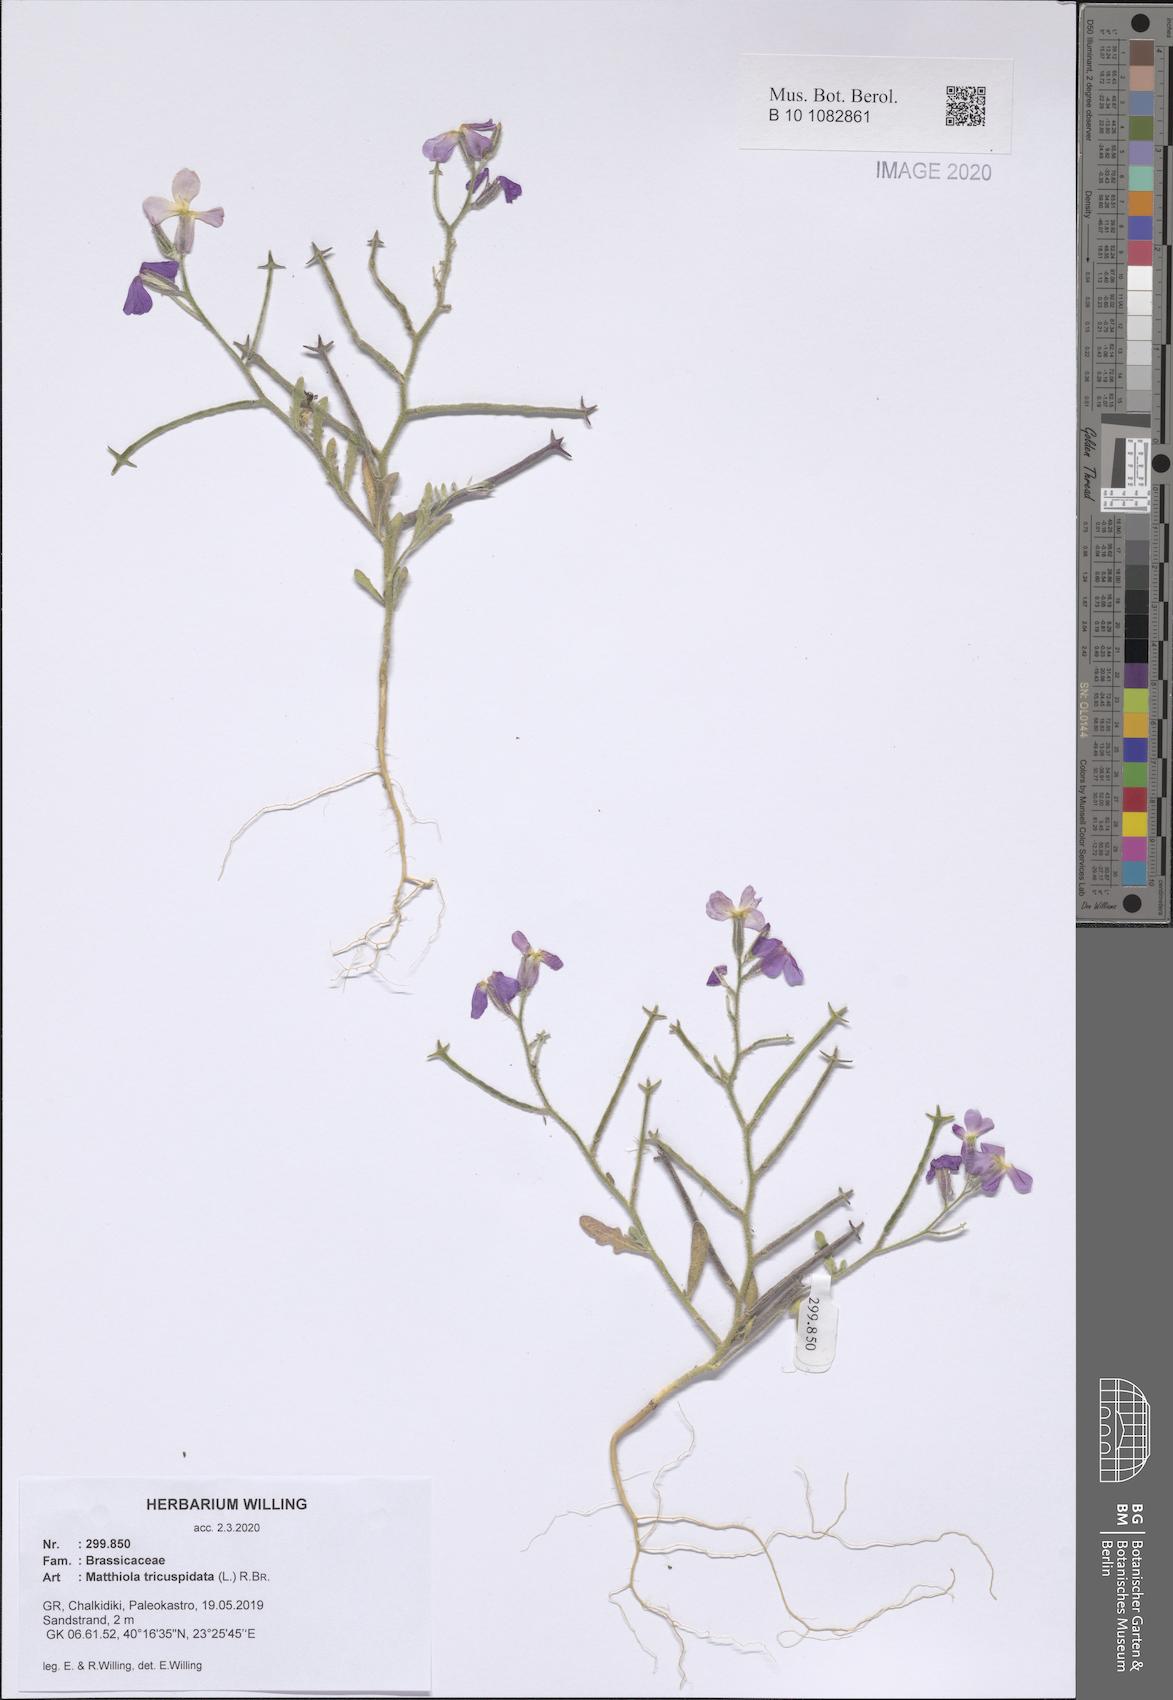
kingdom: Plantae
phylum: Tracheophyta
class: Magnoliopsida
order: Brassicales
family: Brassicaceae
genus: Matthiola
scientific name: Matthiola tricuspidata
